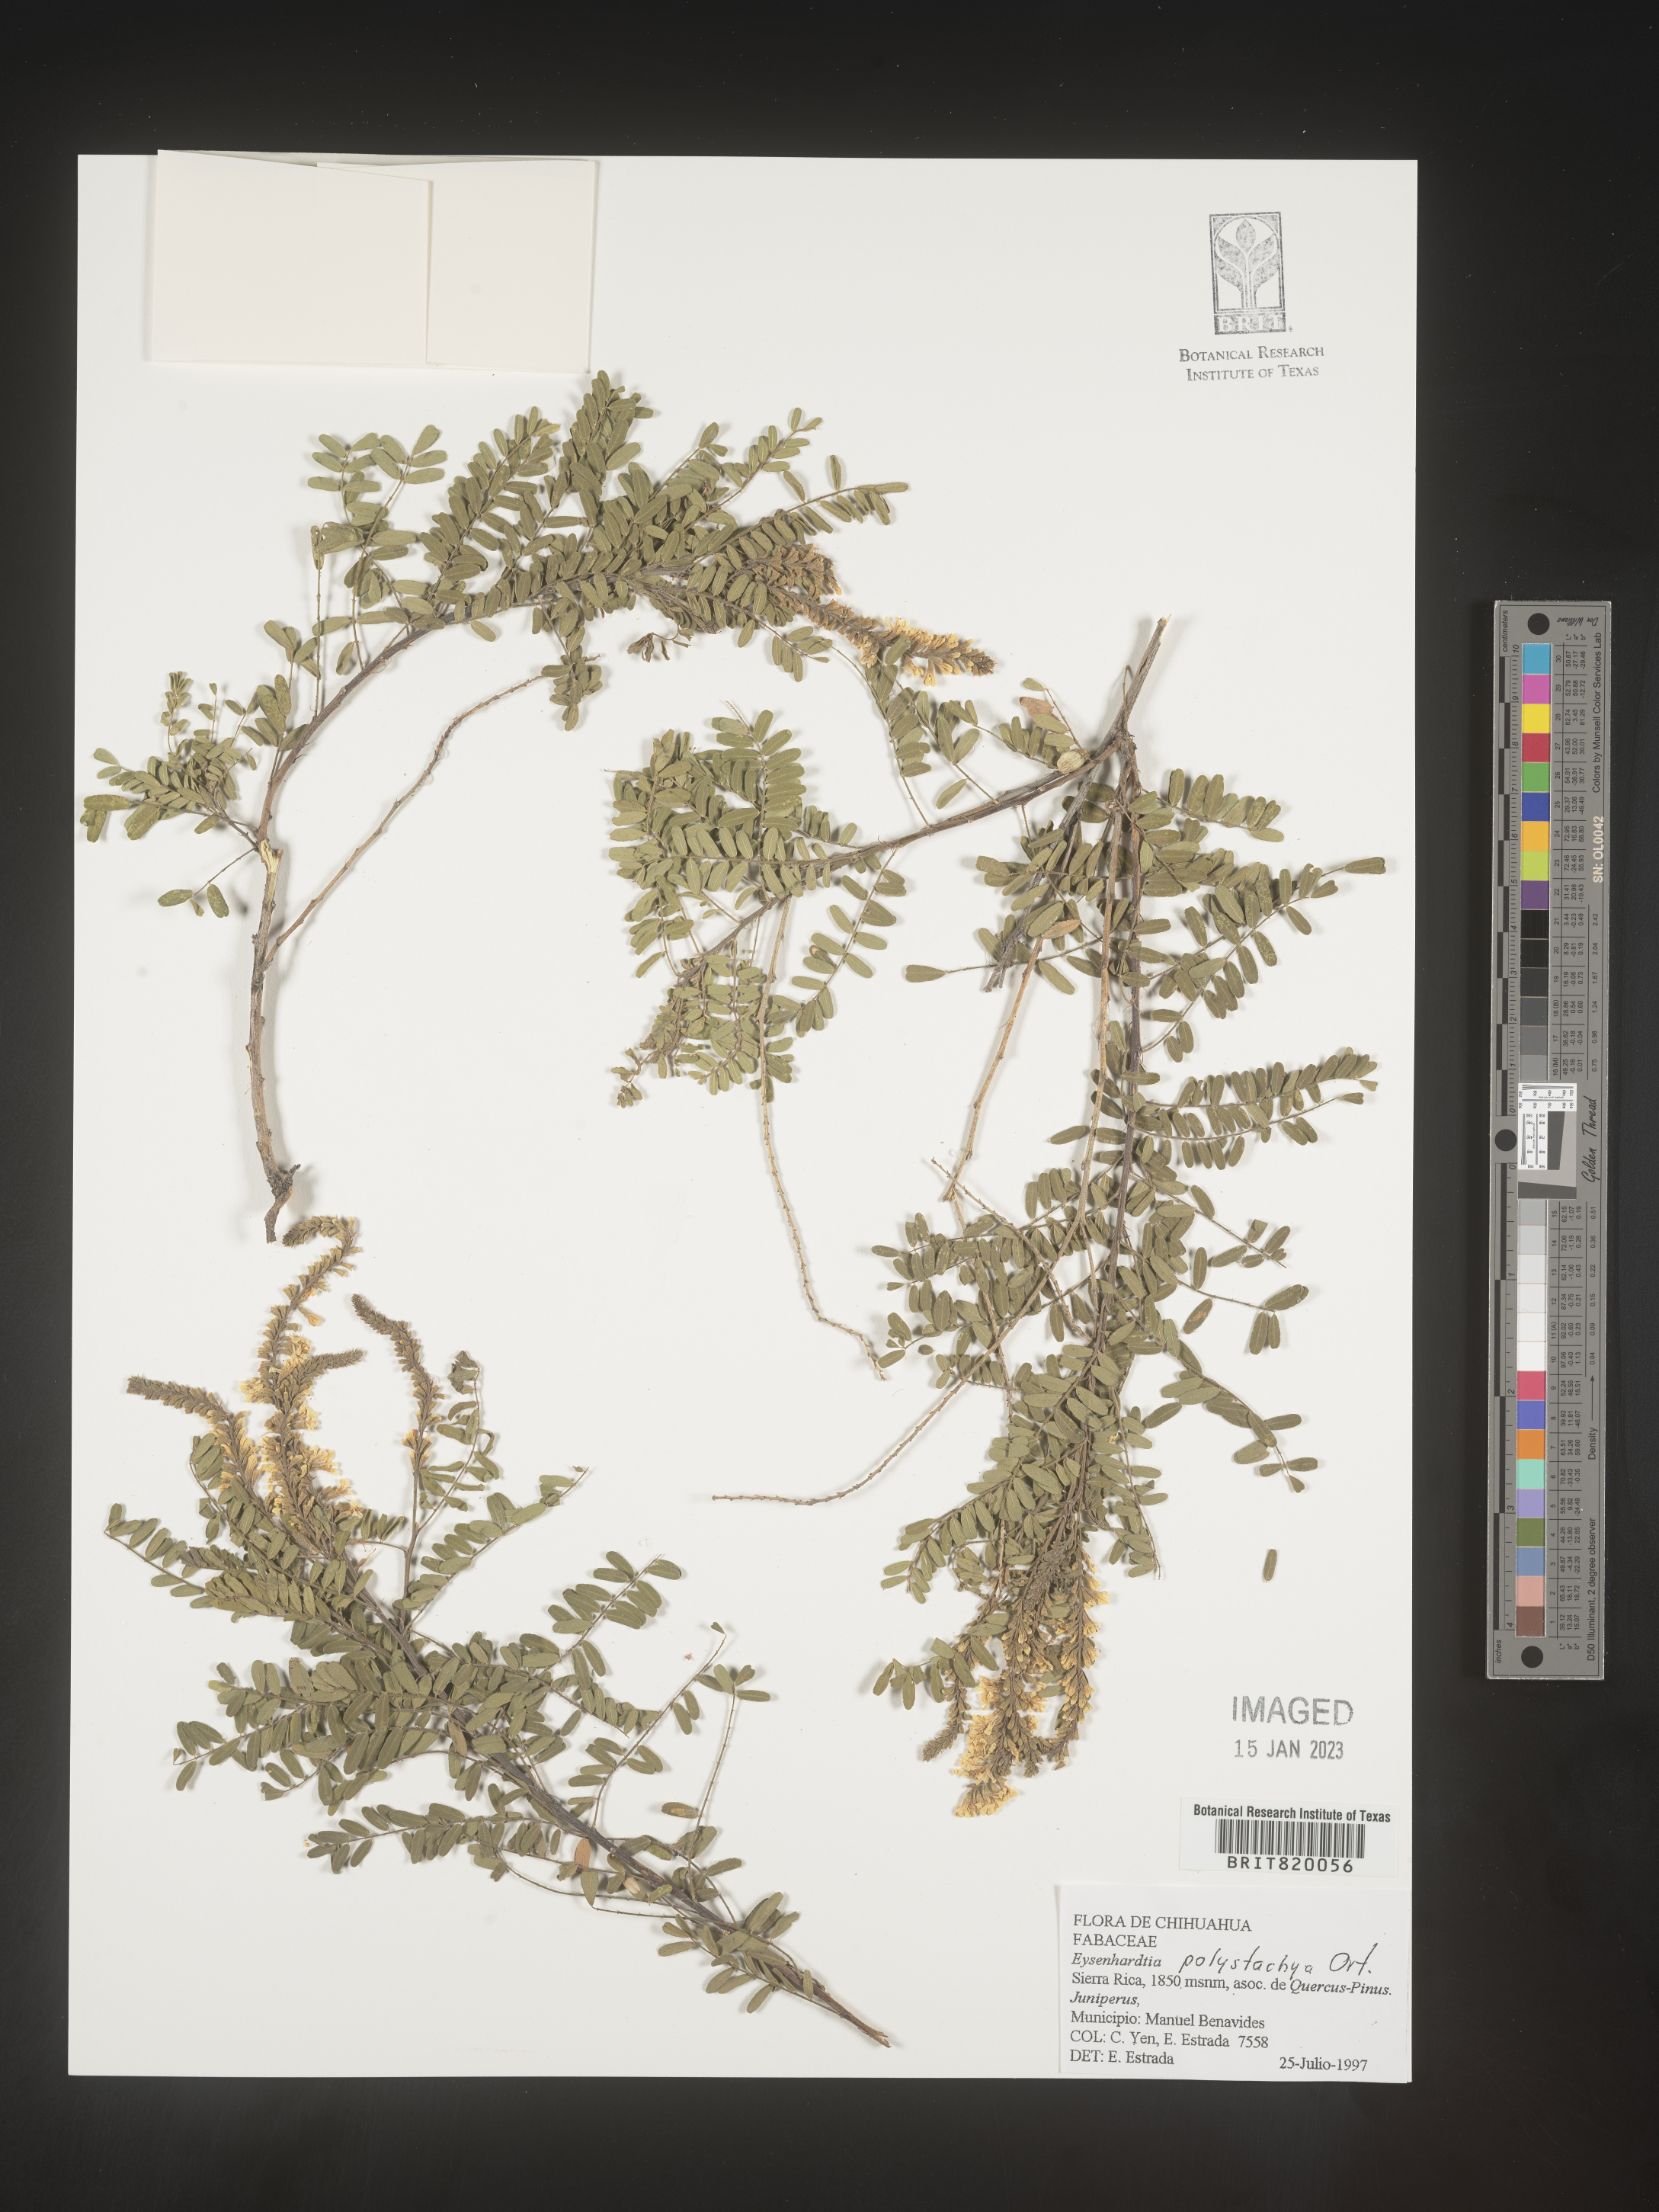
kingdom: Plantae
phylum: Tracheophyta
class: Magnoliopsida
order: Fabales
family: Fabaceae
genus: Eysenhardtia
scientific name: Eysenhardtia
